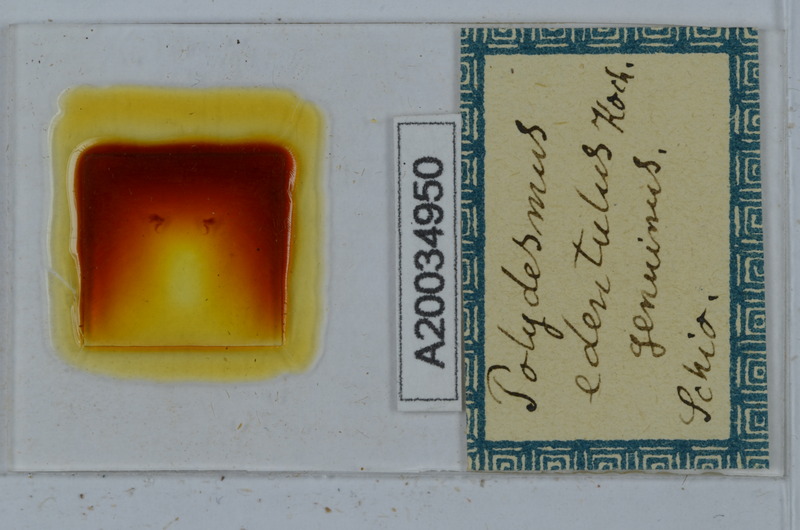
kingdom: Animalia
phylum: Arthropoda
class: Diplopoda
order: Polydesmida
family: Polydesmidae
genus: Polydesmus
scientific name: Polydesmus edentulus
